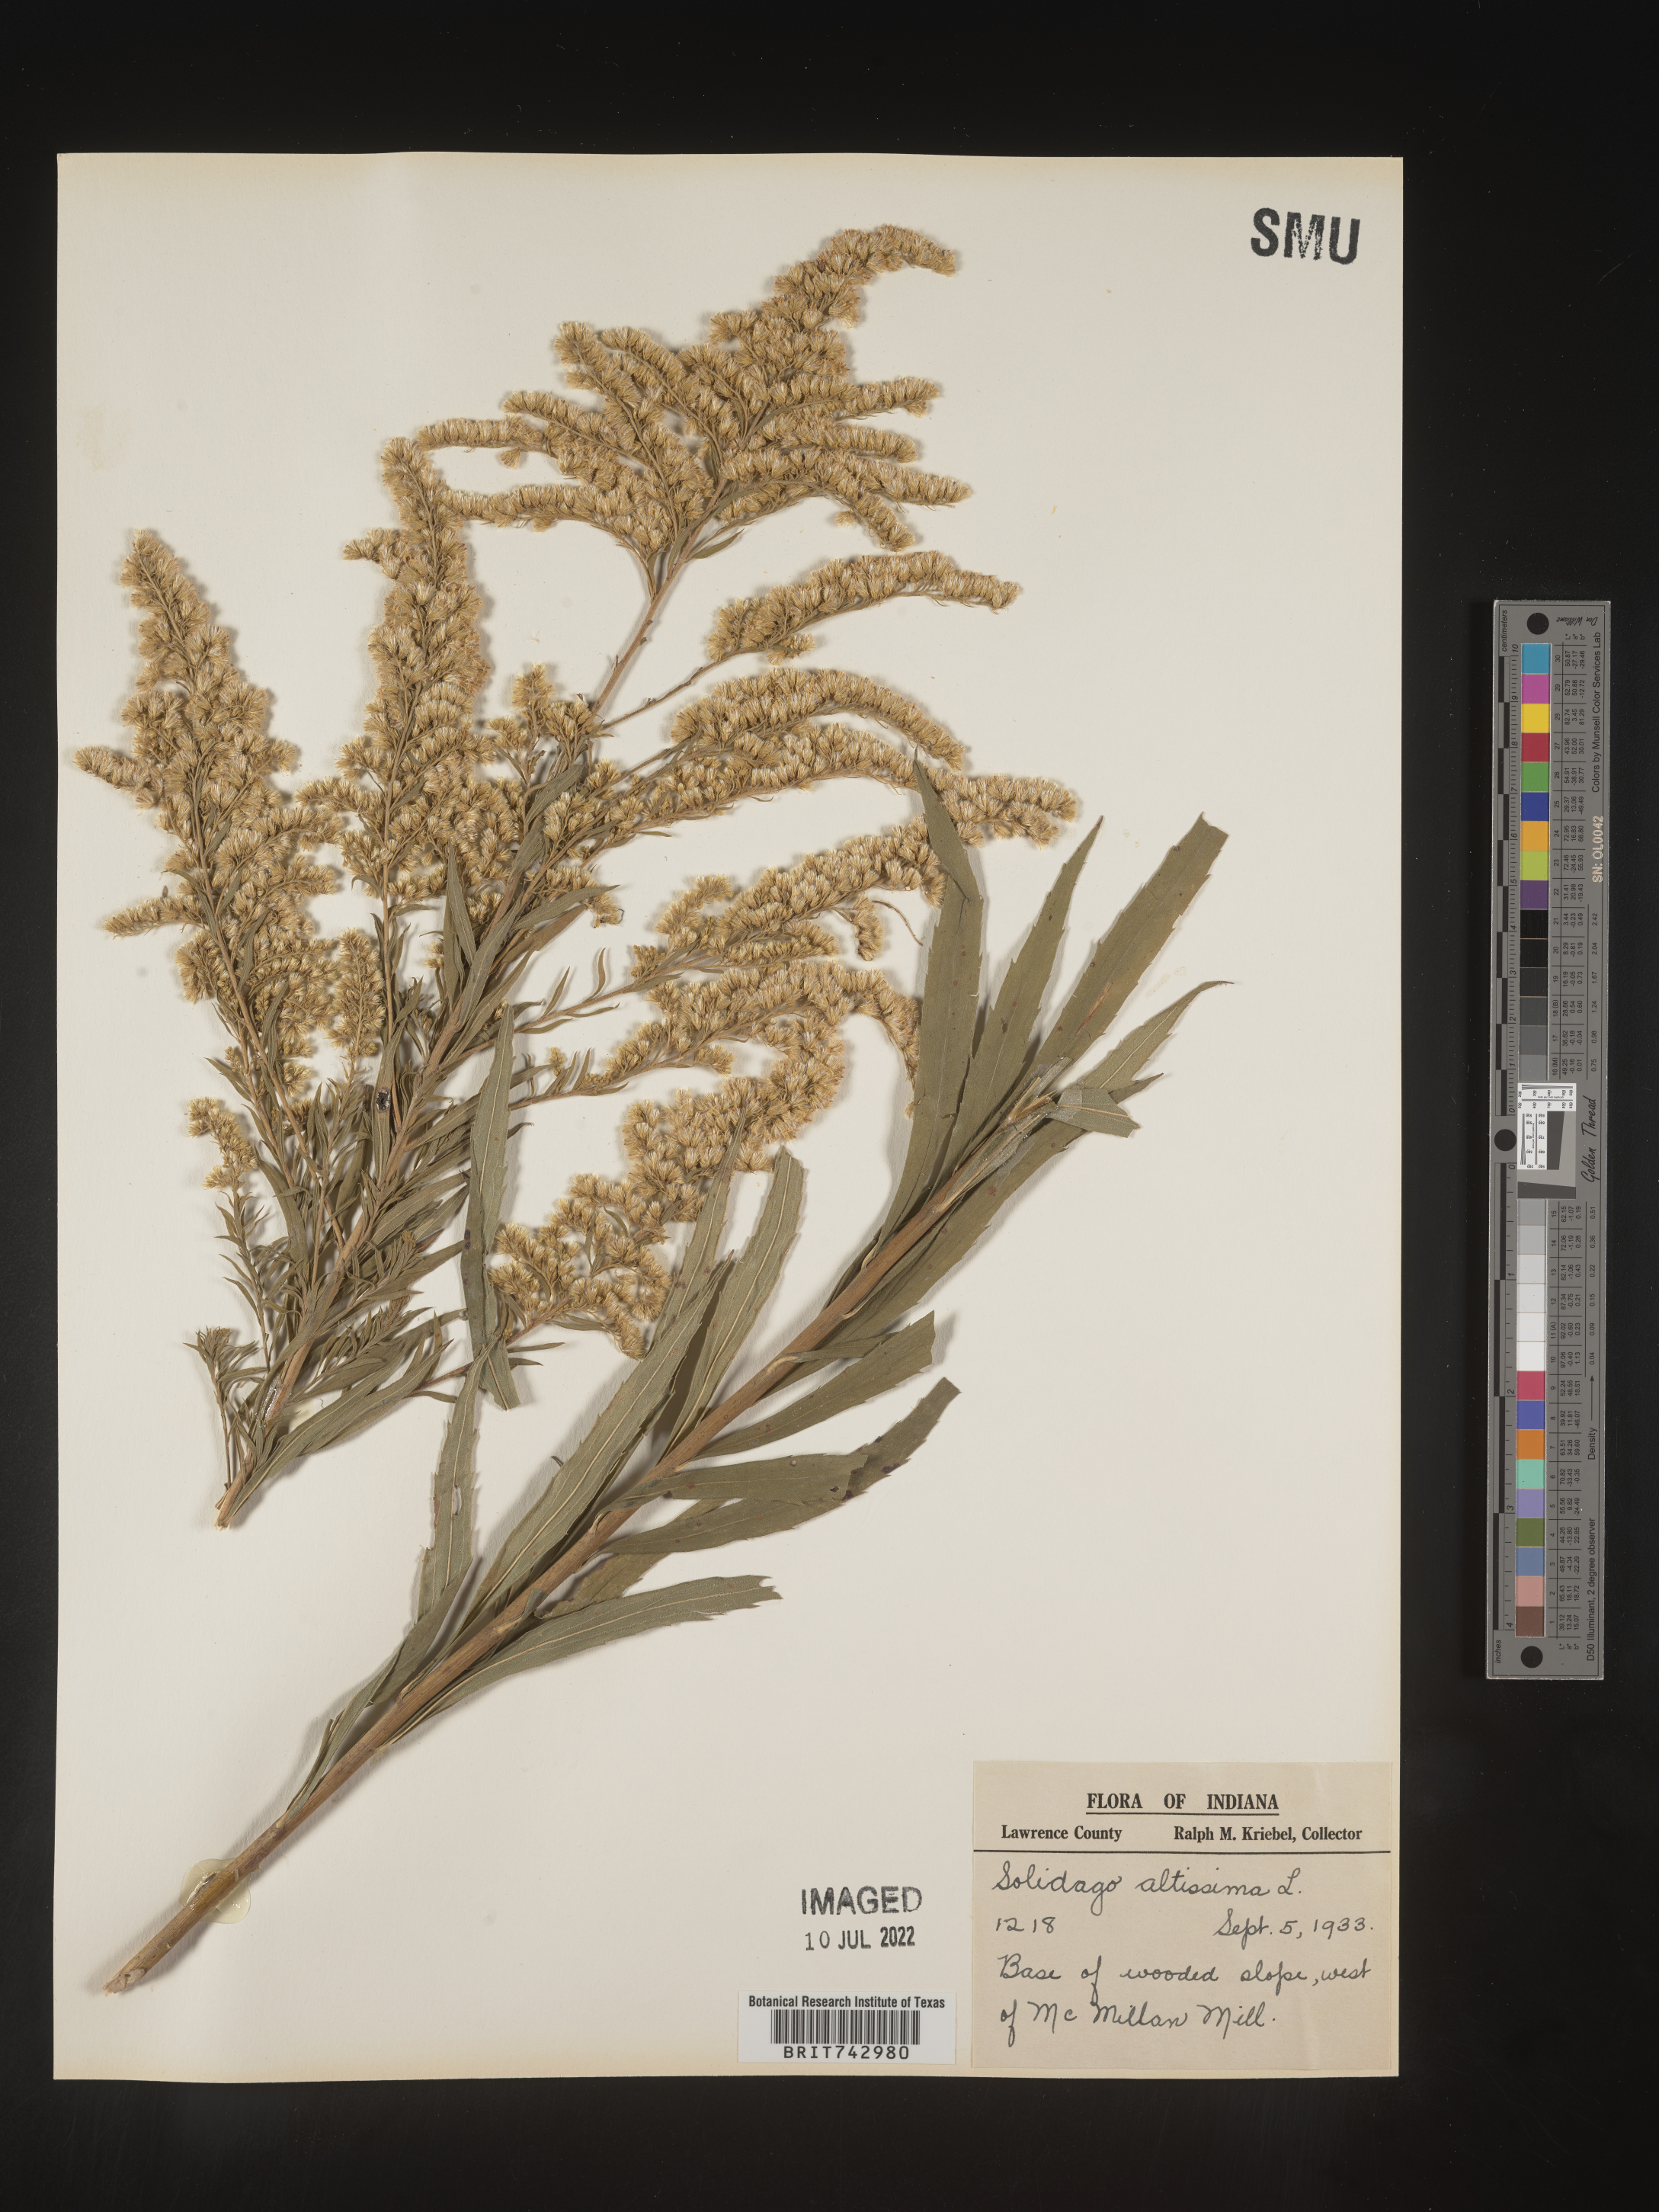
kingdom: Plantae
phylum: Tracheophyta
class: Magnoliopsida
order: Asterales
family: Asteraceae
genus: Solidago
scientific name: Solidago altissima
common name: Late goldenrod
